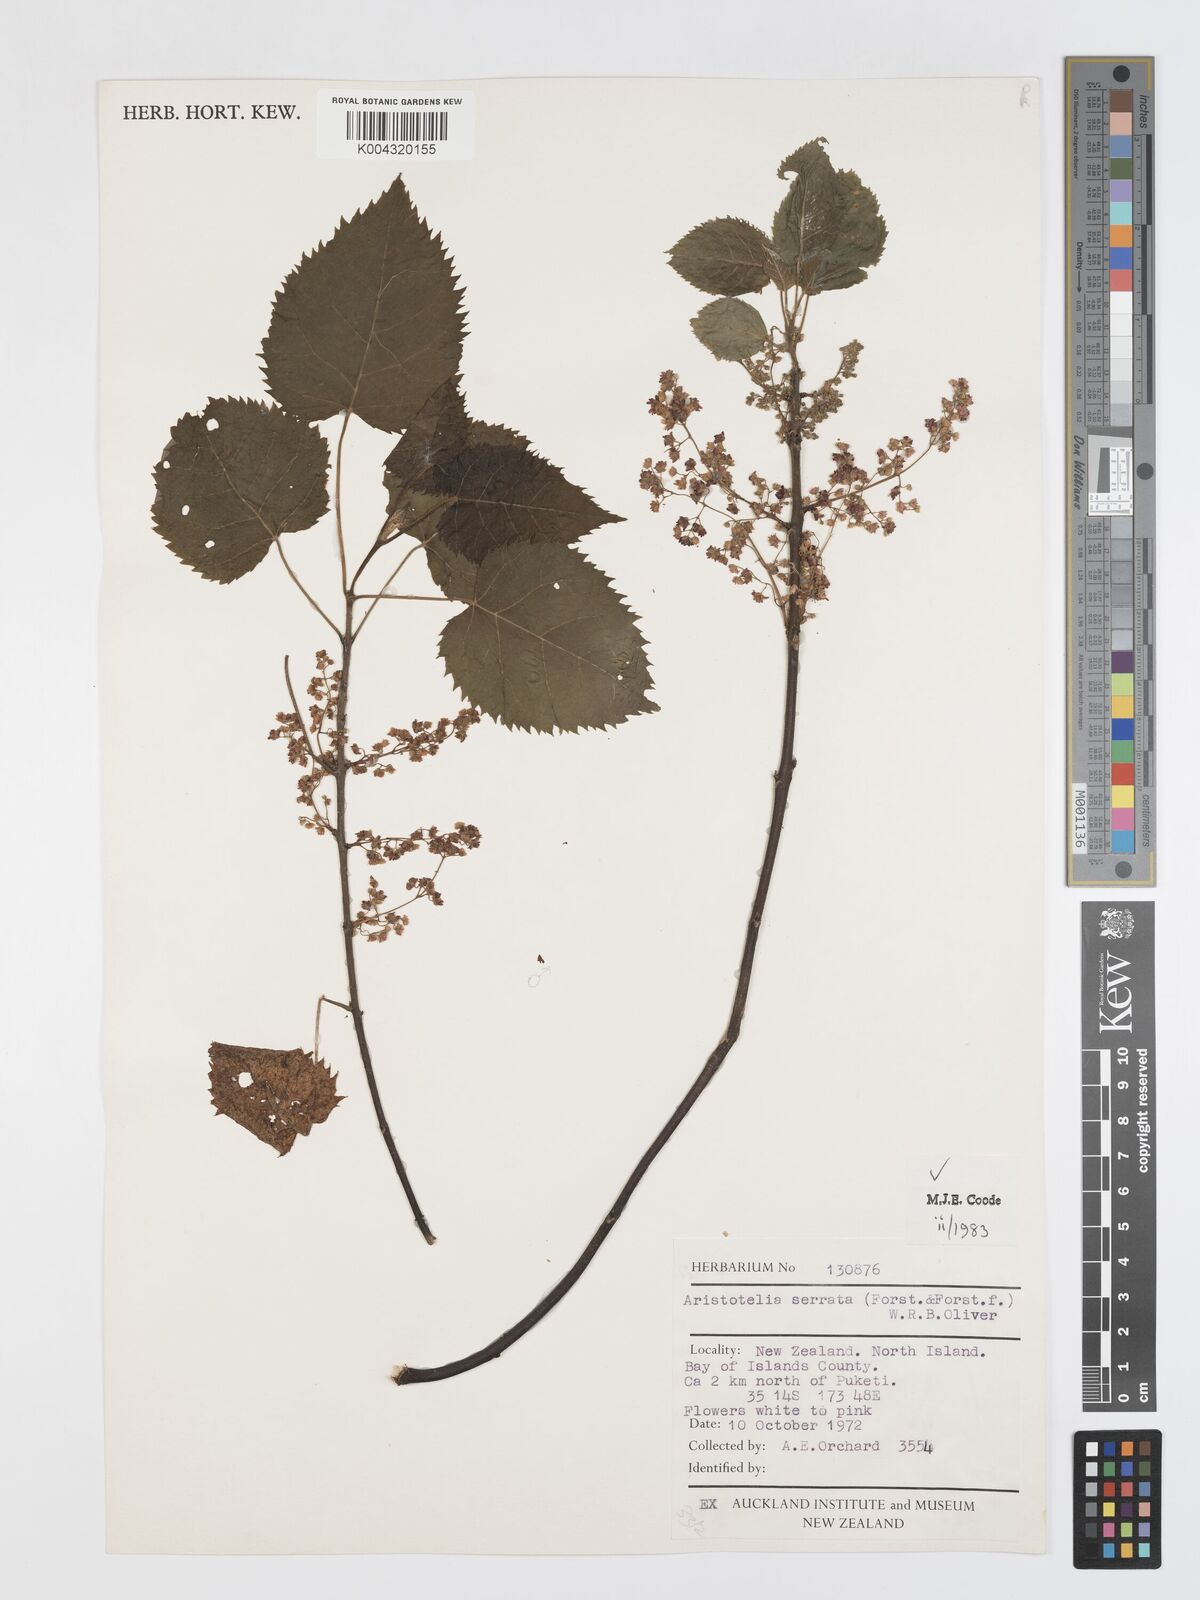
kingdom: Plantae
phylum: Tracheophyta
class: Magnoliopsida
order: Oxalidales
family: Elaeocarpaceae
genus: Aristotelia
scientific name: Aristotelia serrata
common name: New zealand wineberry
